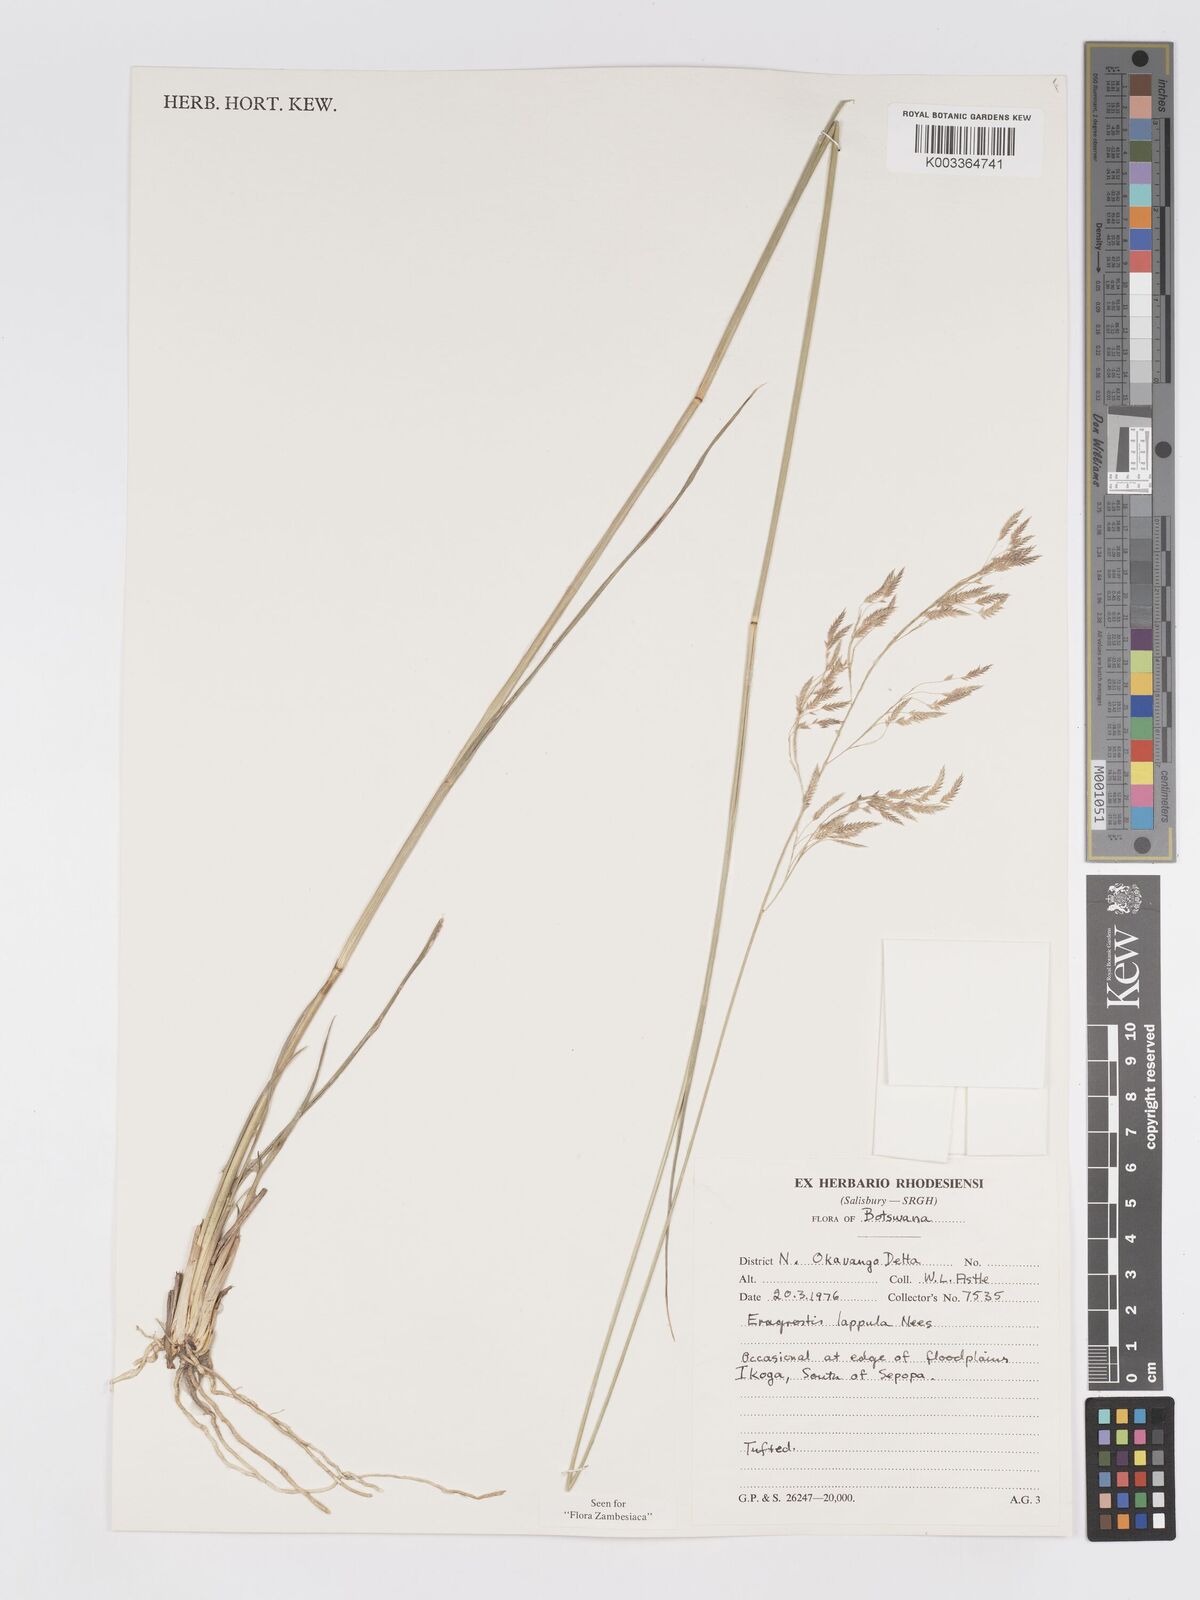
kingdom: Plantae
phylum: Tracheophyta
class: Liliopsida
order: Poales
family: Poaceae
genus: Eragrostis
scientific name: Eragrostis lappula
